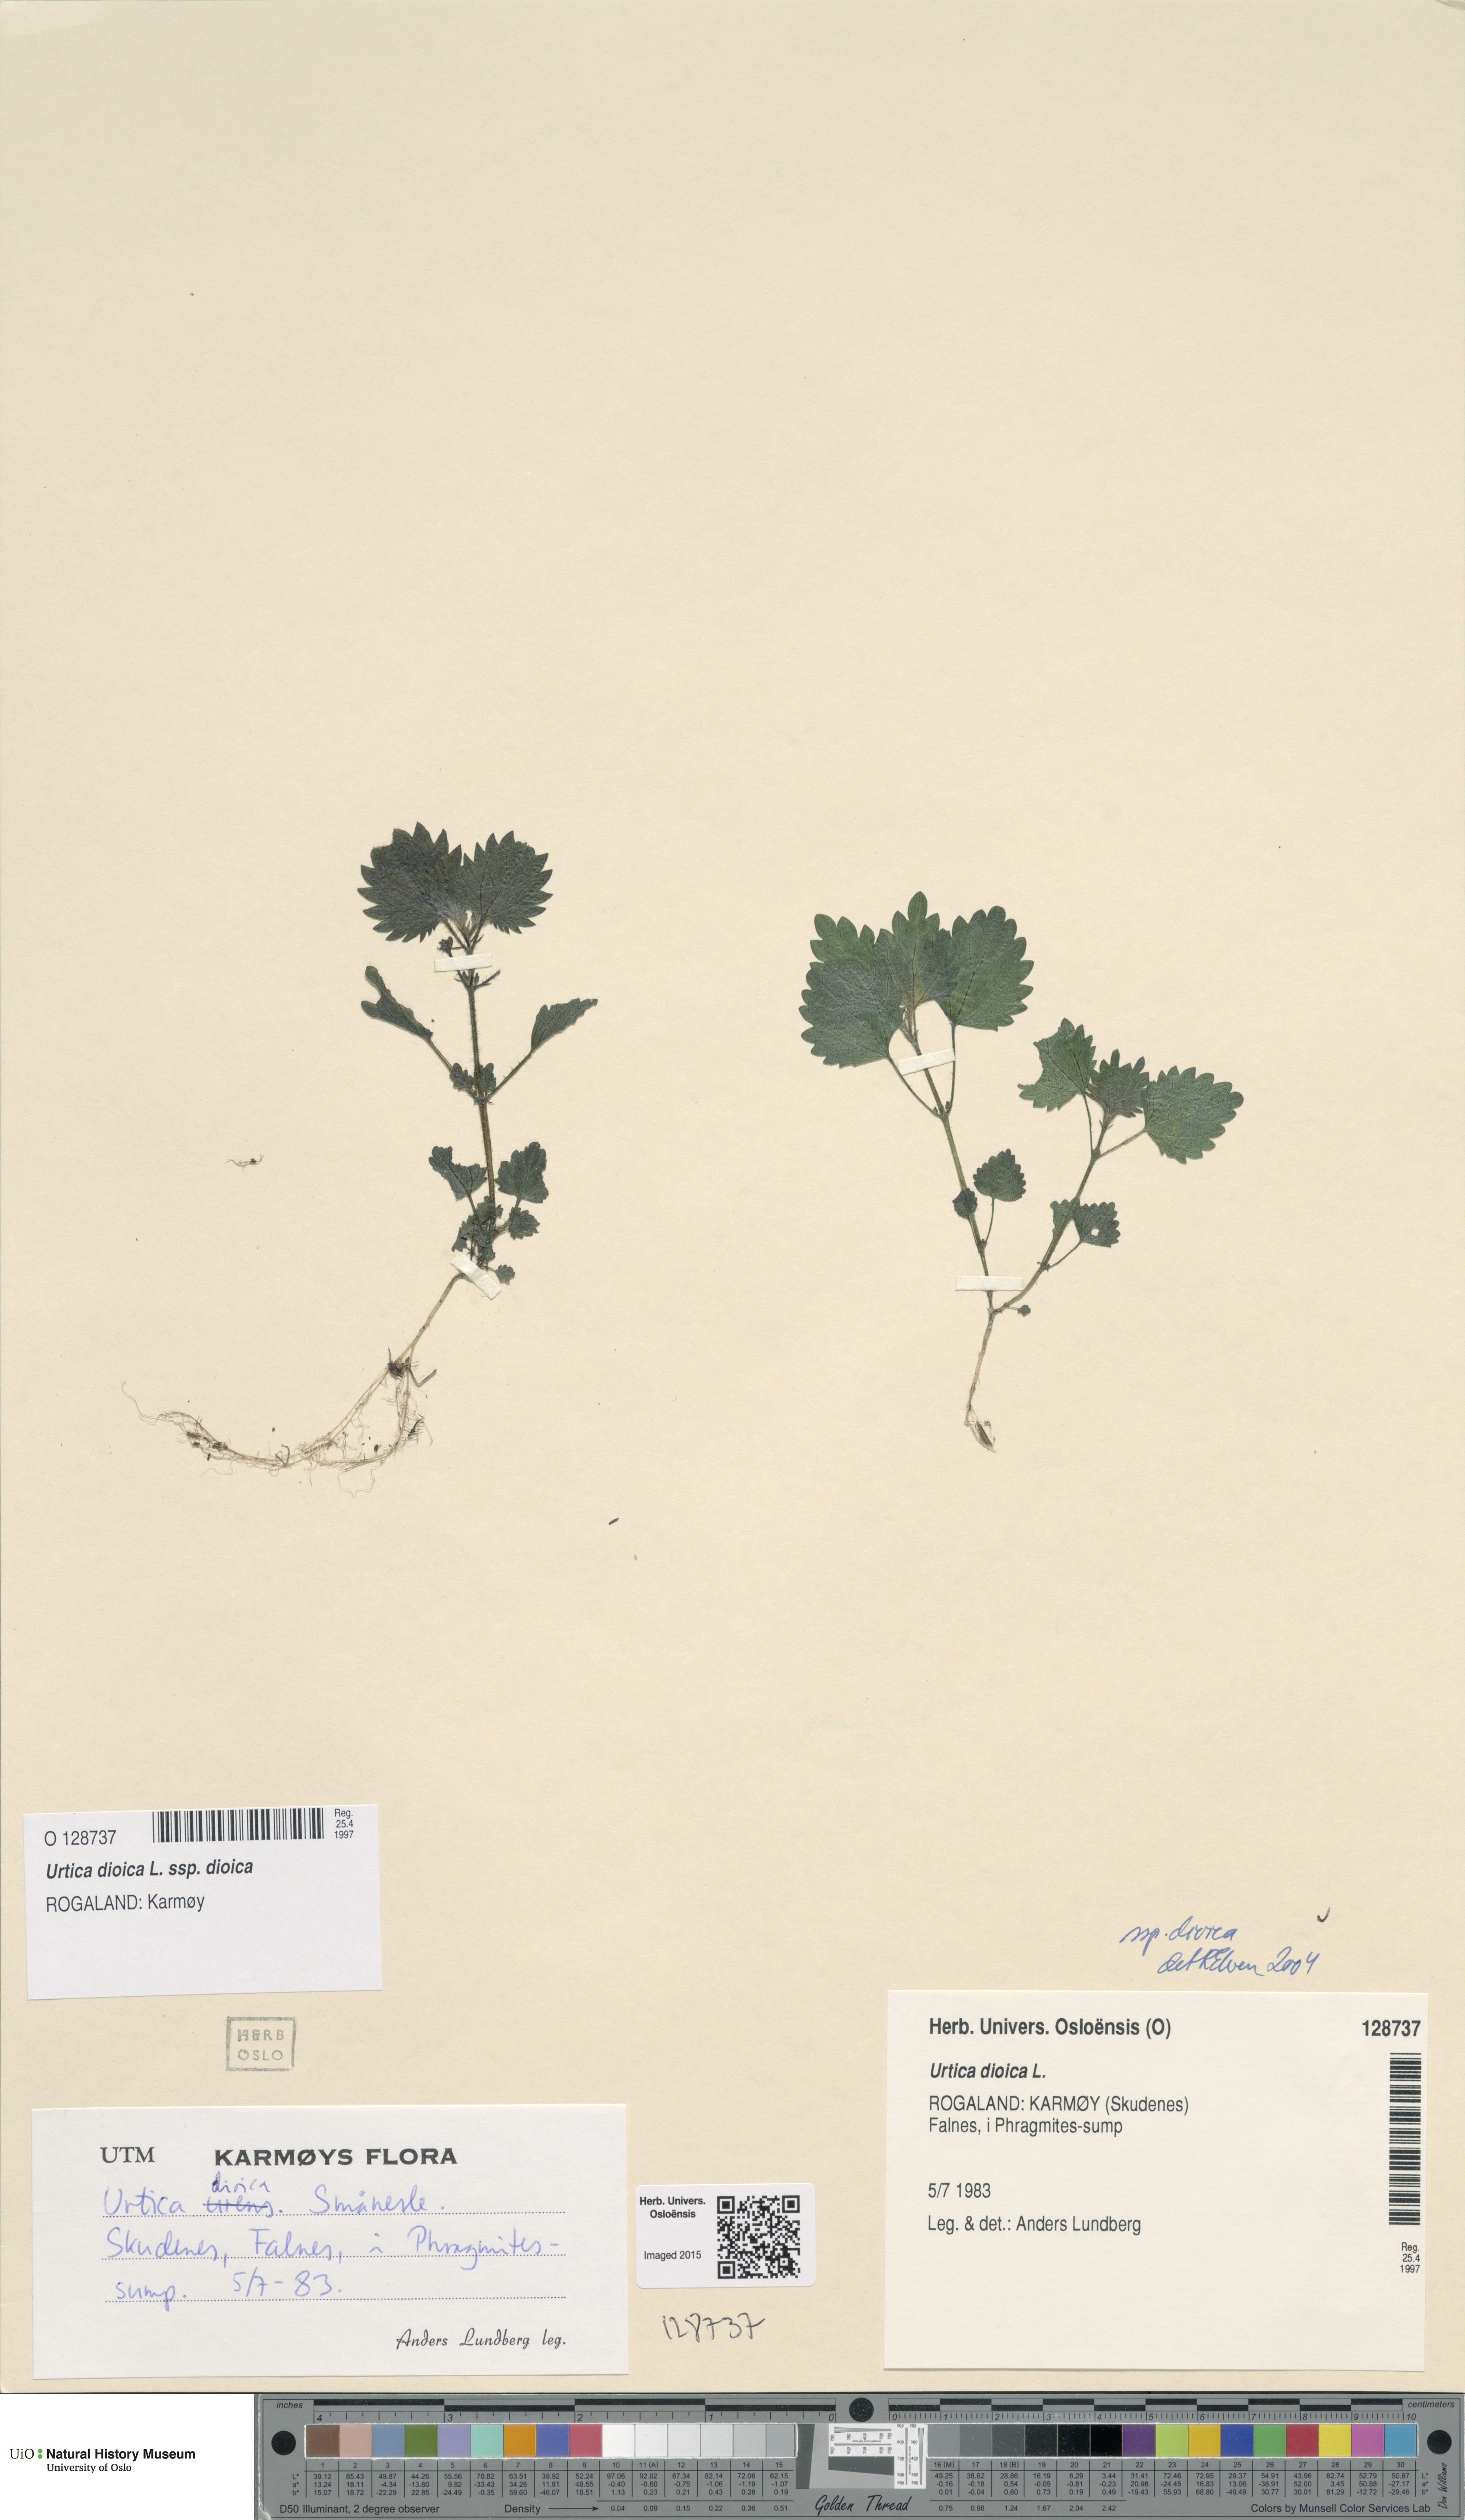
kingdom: Plantae
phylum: Tracheophyta
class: Magnoliopsida
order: Rosales
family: Urticaceae
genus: Urtica
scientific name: Urtica dioica
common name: Common nettle
